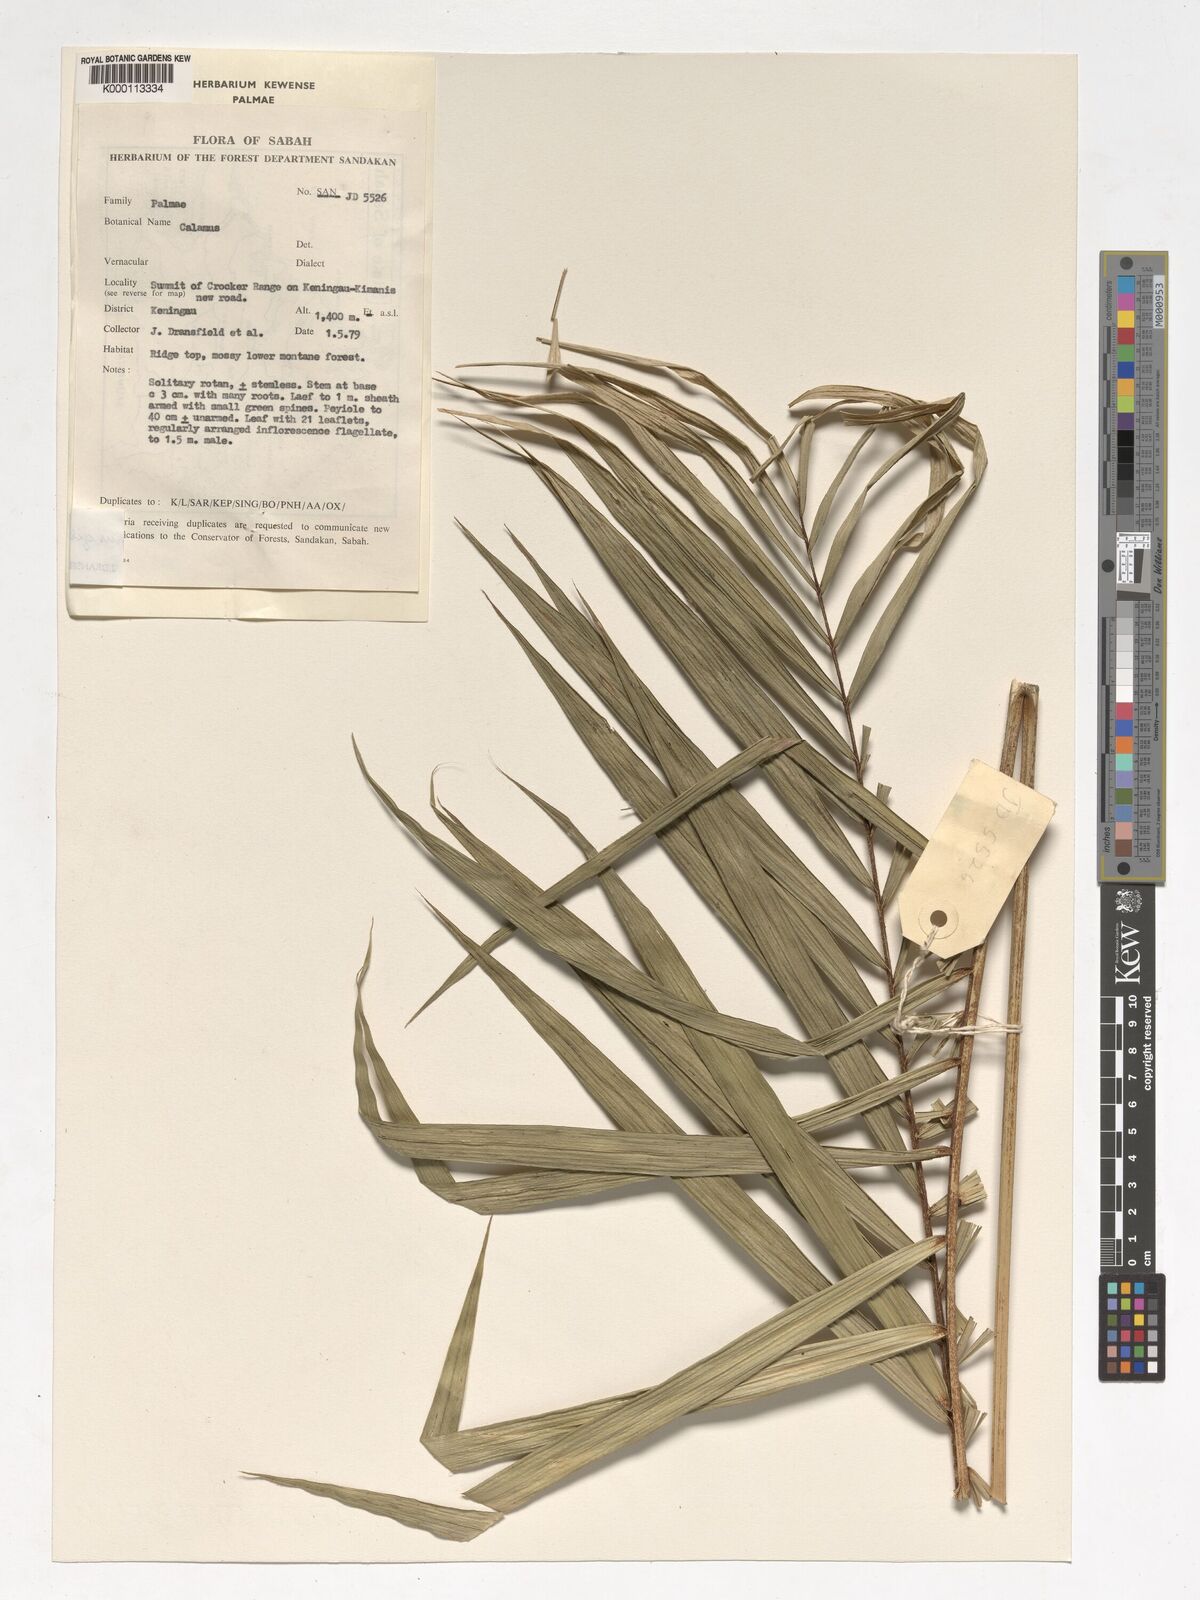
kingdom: Plantae
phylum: Tracheophyta
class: Liliopsida
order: Arecales
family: Arecaceae
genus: Calamus
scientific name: Calamus gibbsianus
